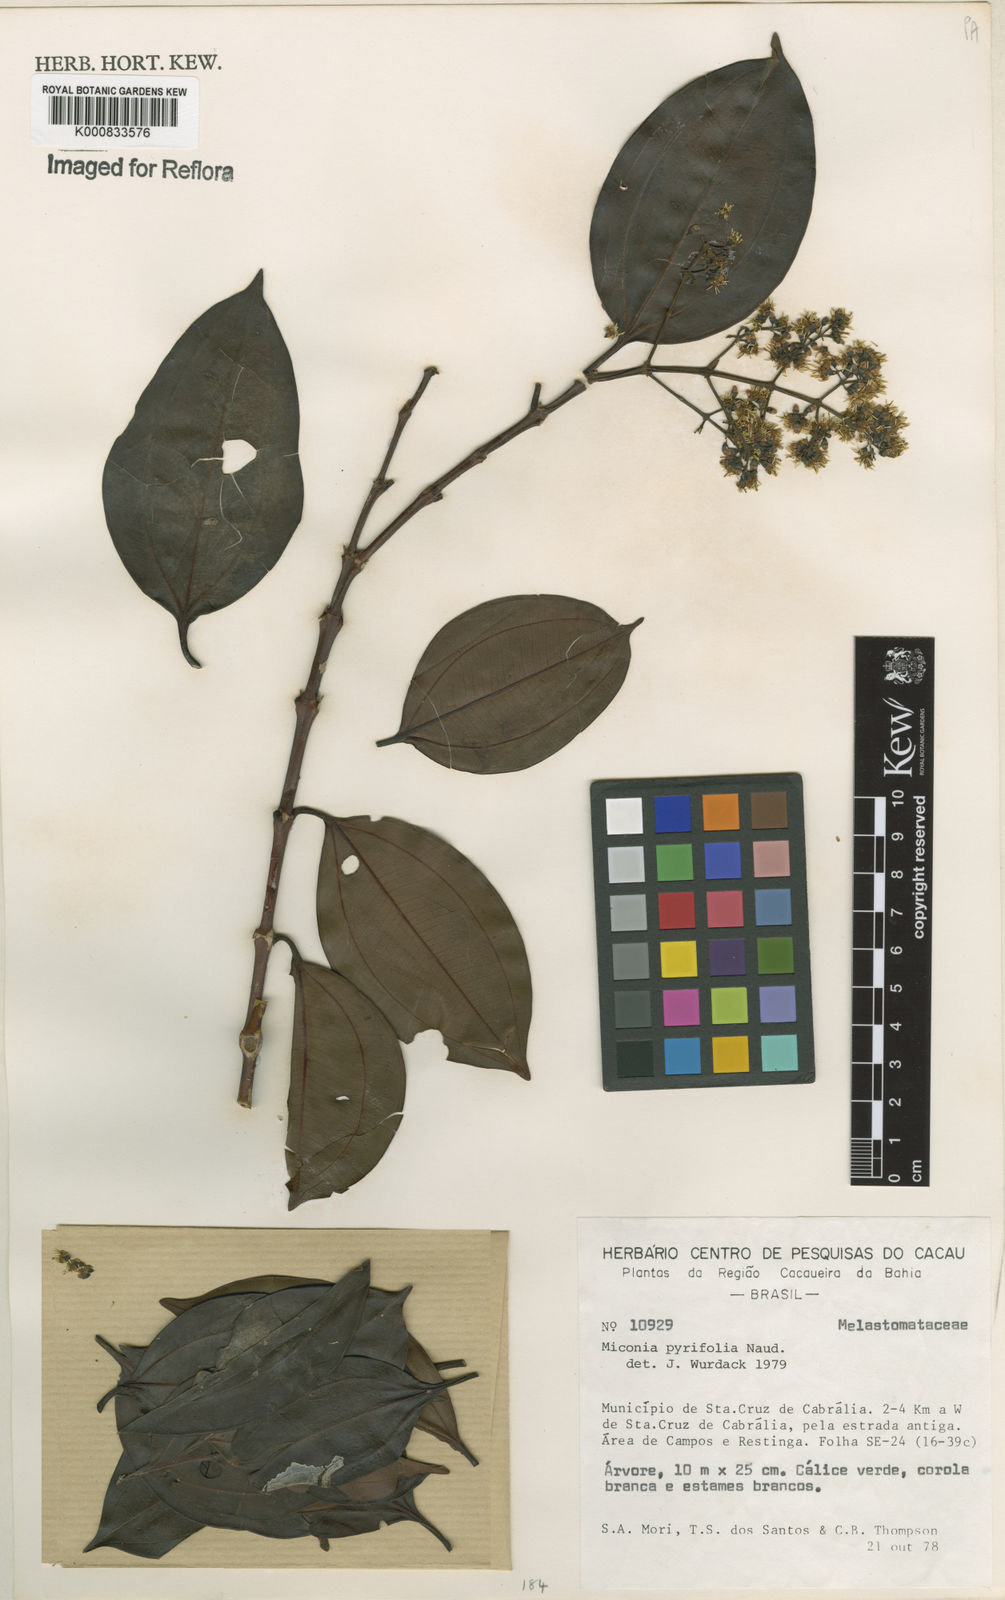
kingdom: Plantae
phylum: Tracheophyta
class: Magnoliopsida
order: Myrtales
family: Melastomataceae
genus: Miconia
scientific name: Miconia pyrifolia
